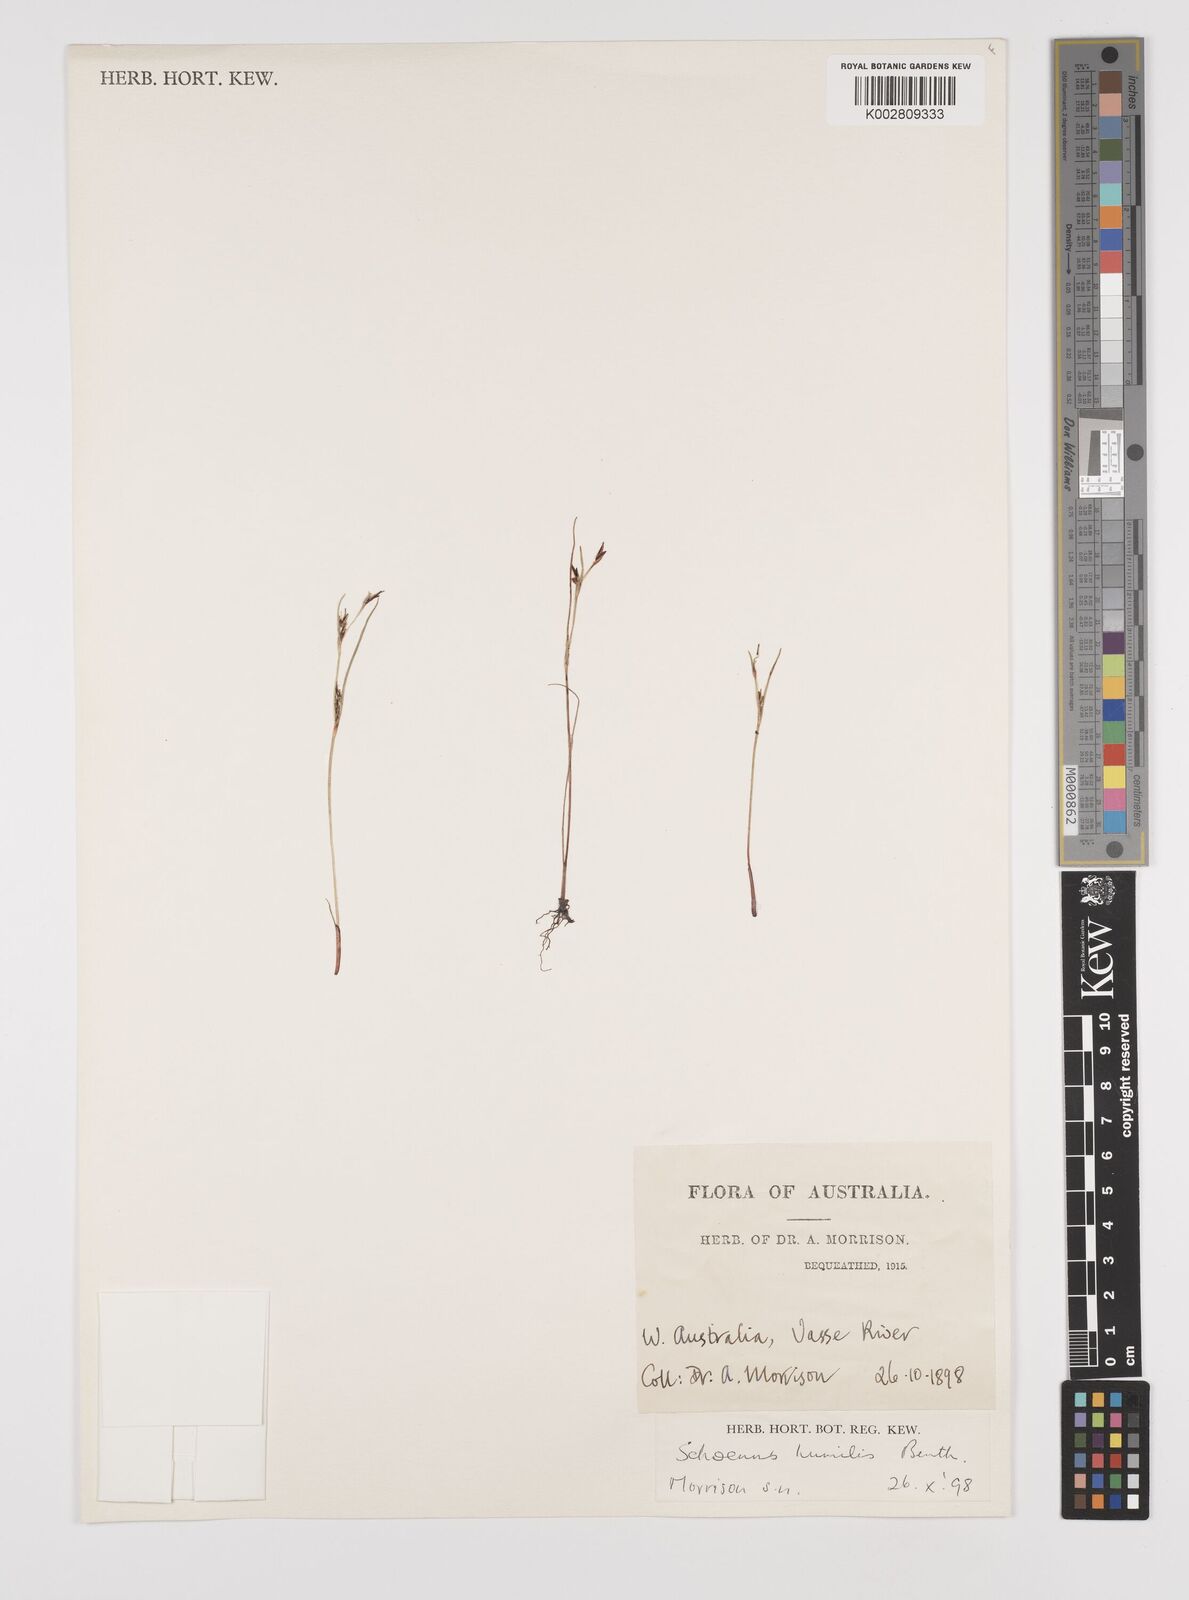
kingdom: Plantae
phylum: Tracheophyta
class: Liliopsida
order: Poales
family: Cyperaceae
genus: Schoenus
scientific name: Schoenus humilis
